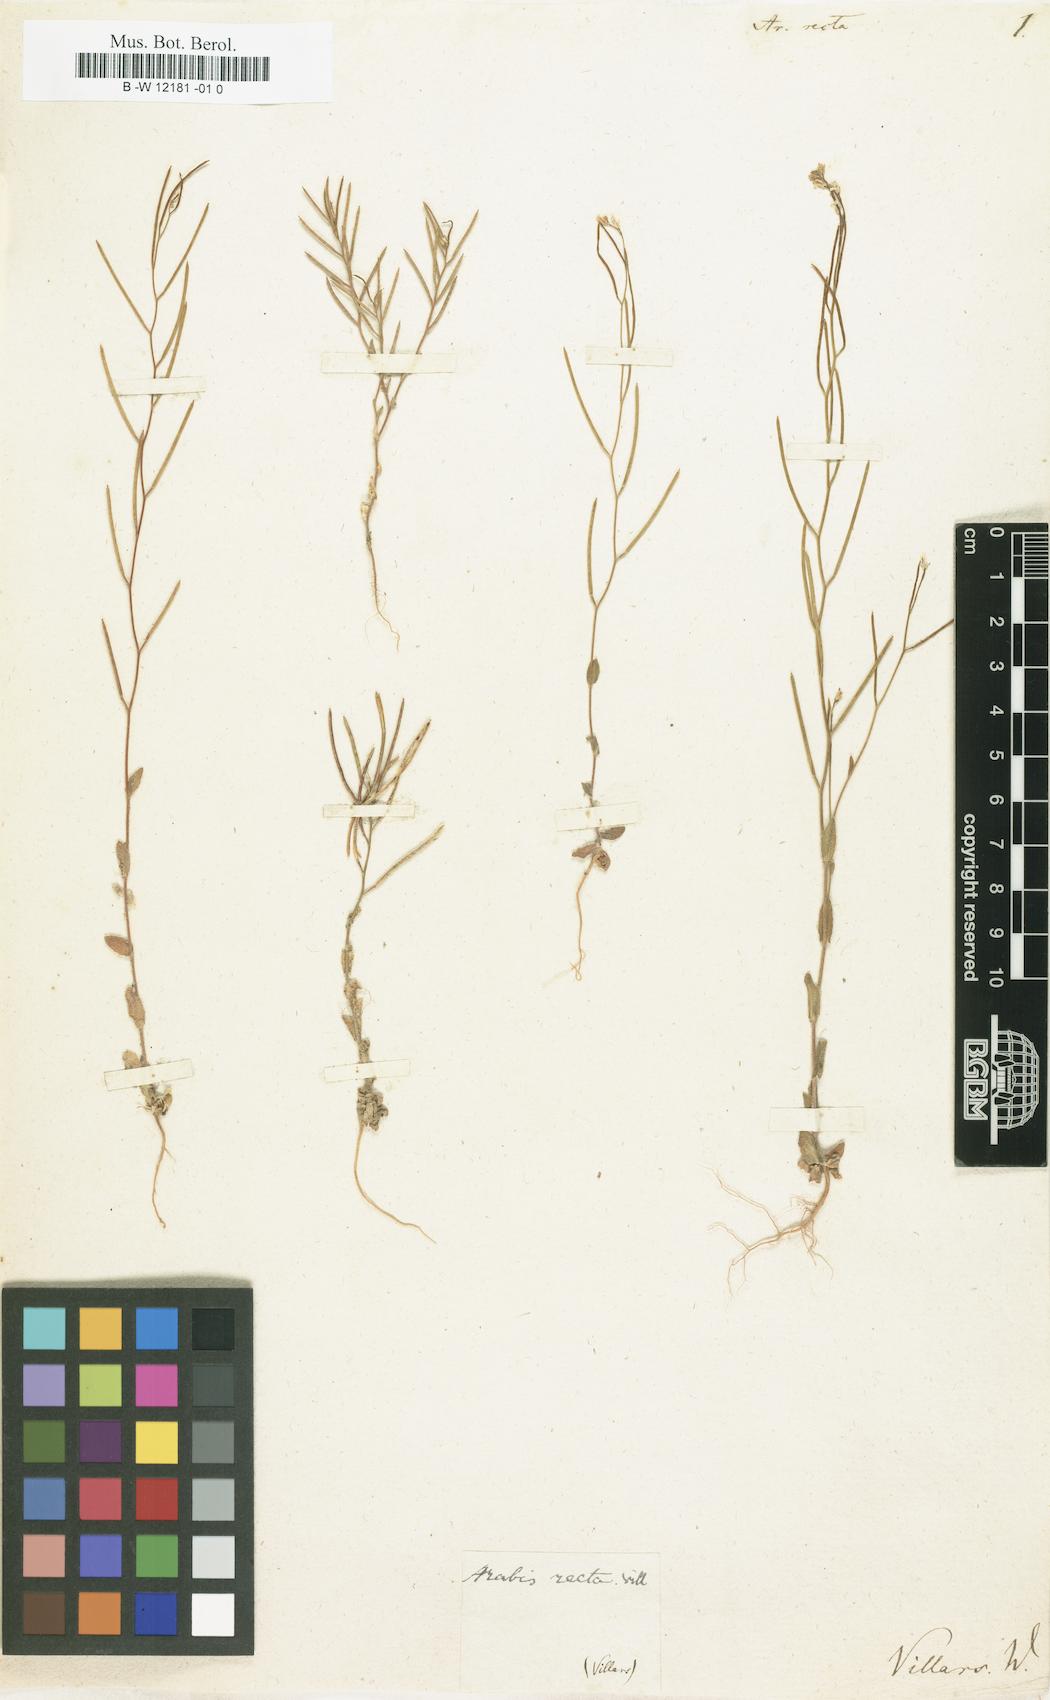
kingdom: Plantae
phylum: Tracheophyta
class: Magnoliopsida
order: Brassicales
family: Brassicaceae
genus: Arabis
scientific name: Arabis auriculata
